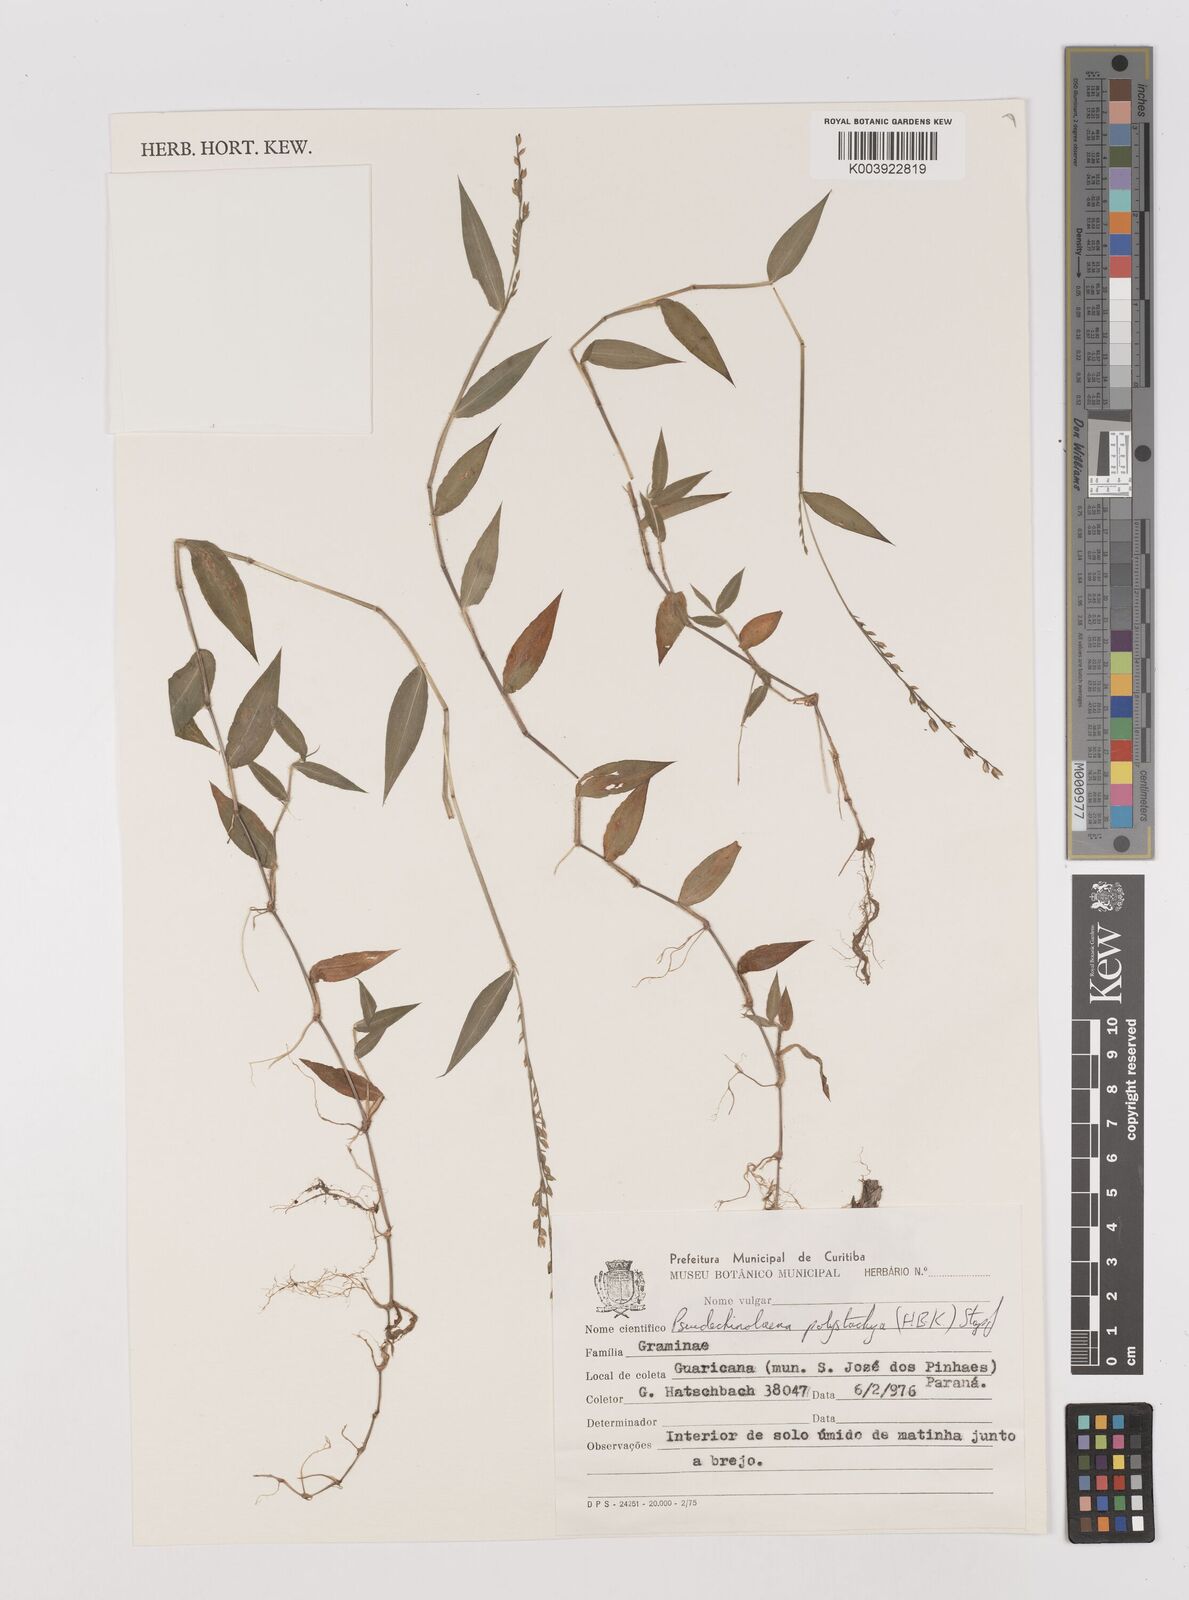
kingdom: Plantae
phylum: Tracheophyta
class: Liliopsida
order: Poales
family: Poaceae
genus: Pseudechinolaena
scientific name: Pseudechinolaena polystachya
